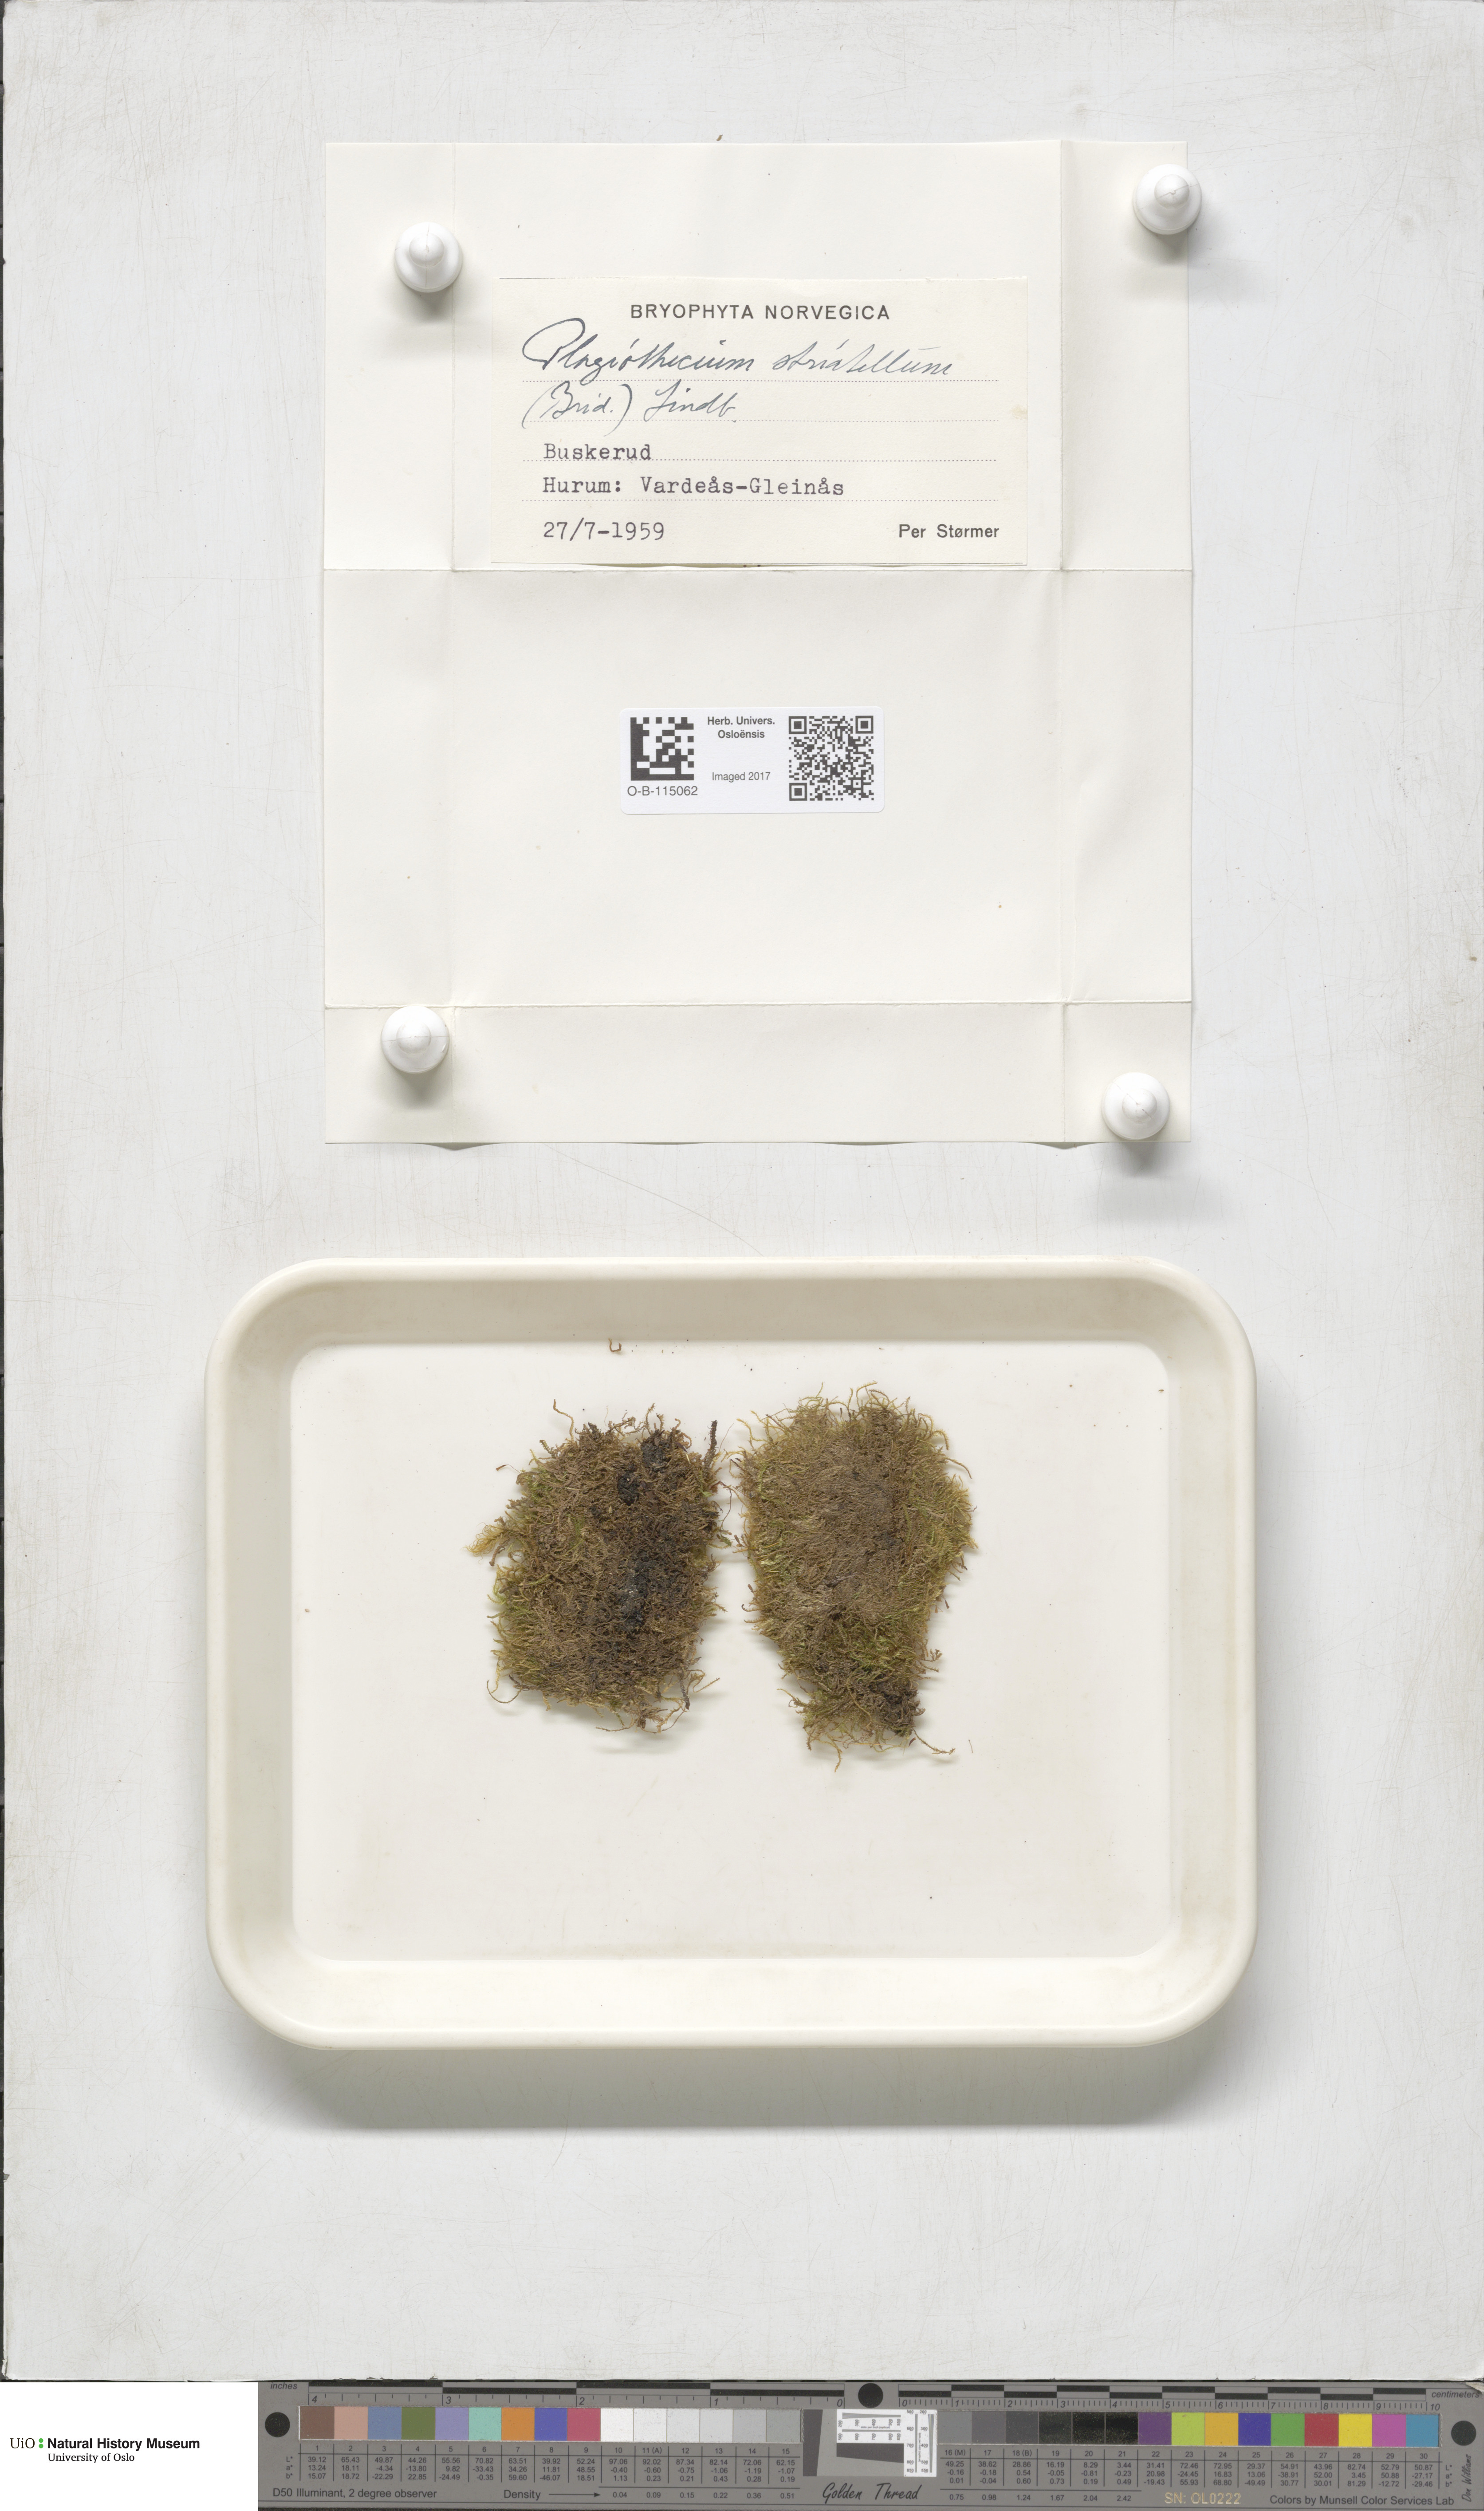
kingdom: Plantae
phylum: Bryophyta
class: Bryopsida
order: Hypnales
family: Plagiotheciaceae
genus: Herzogiella
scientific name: Herzogiella striatella
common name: Muhlenbeck's feather-moss
